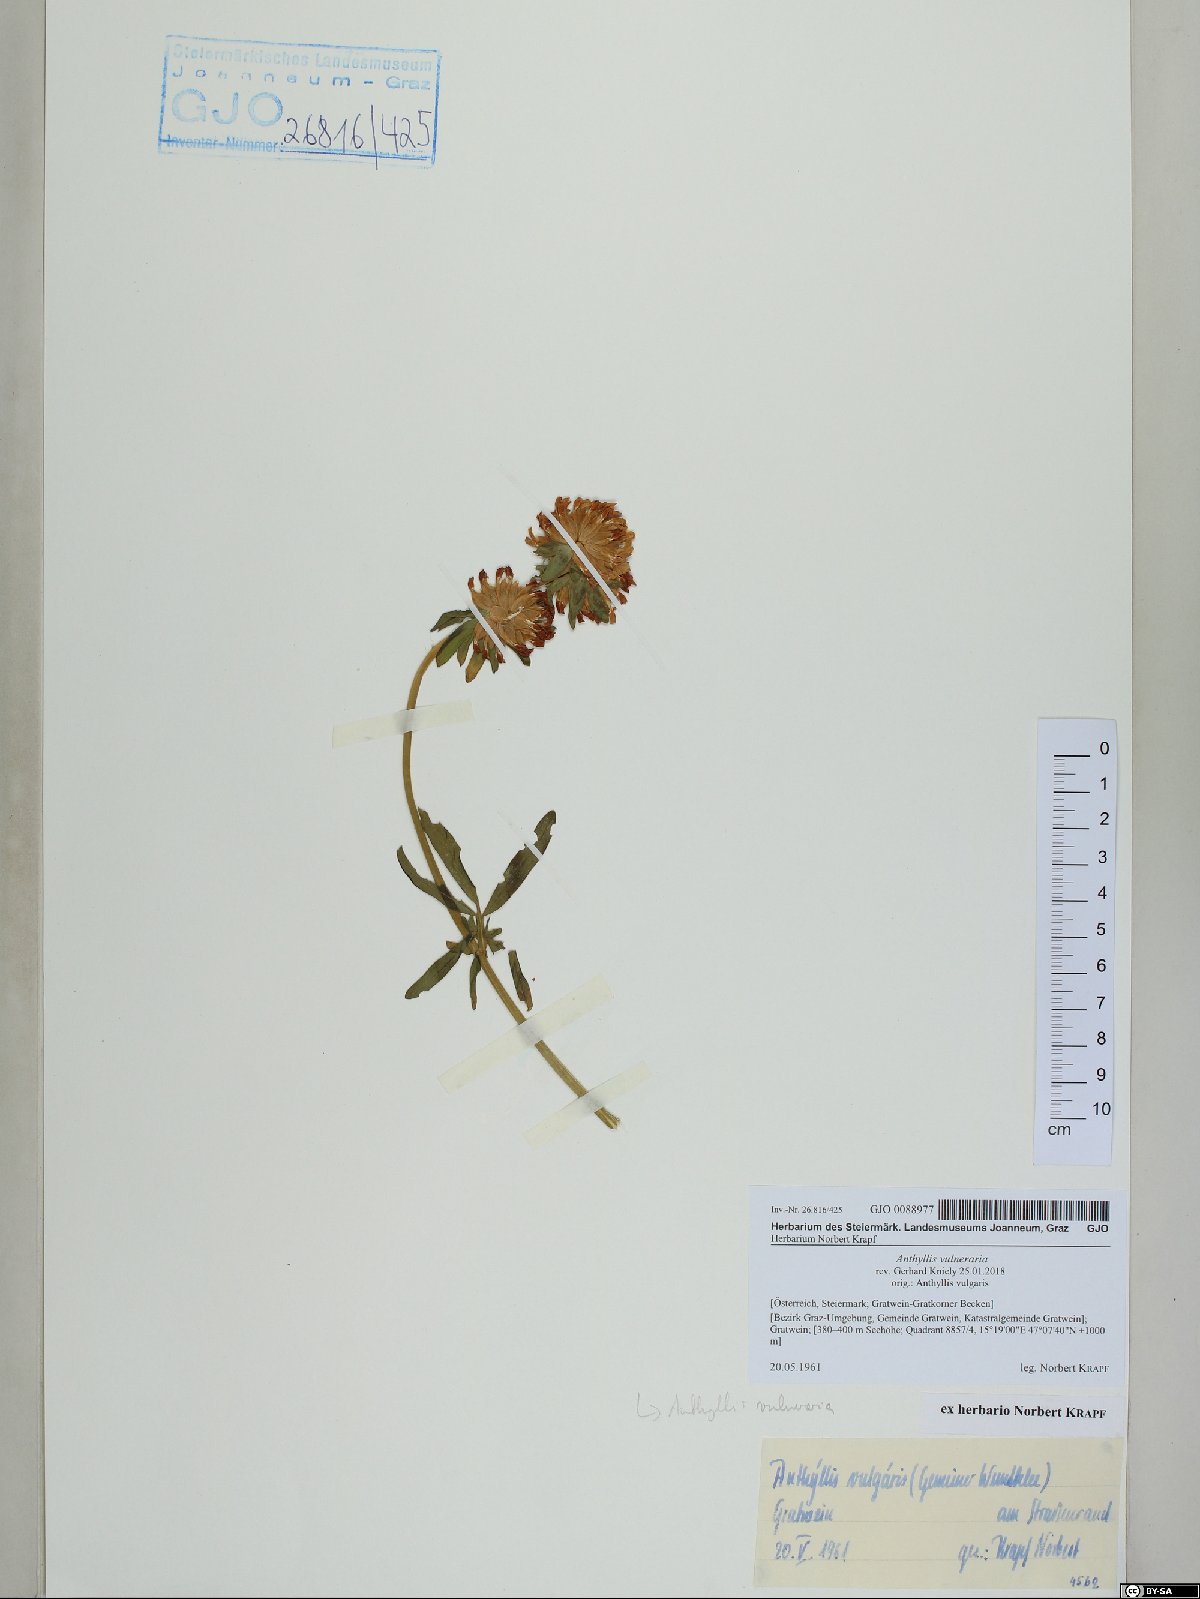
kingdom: Plantae
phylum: Tracheophyta
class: Magnoliopsida
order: Fabales
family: Fabaceae
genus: Anthyllis
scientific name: Anthyllis vulneraria
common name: Kidney vetch
